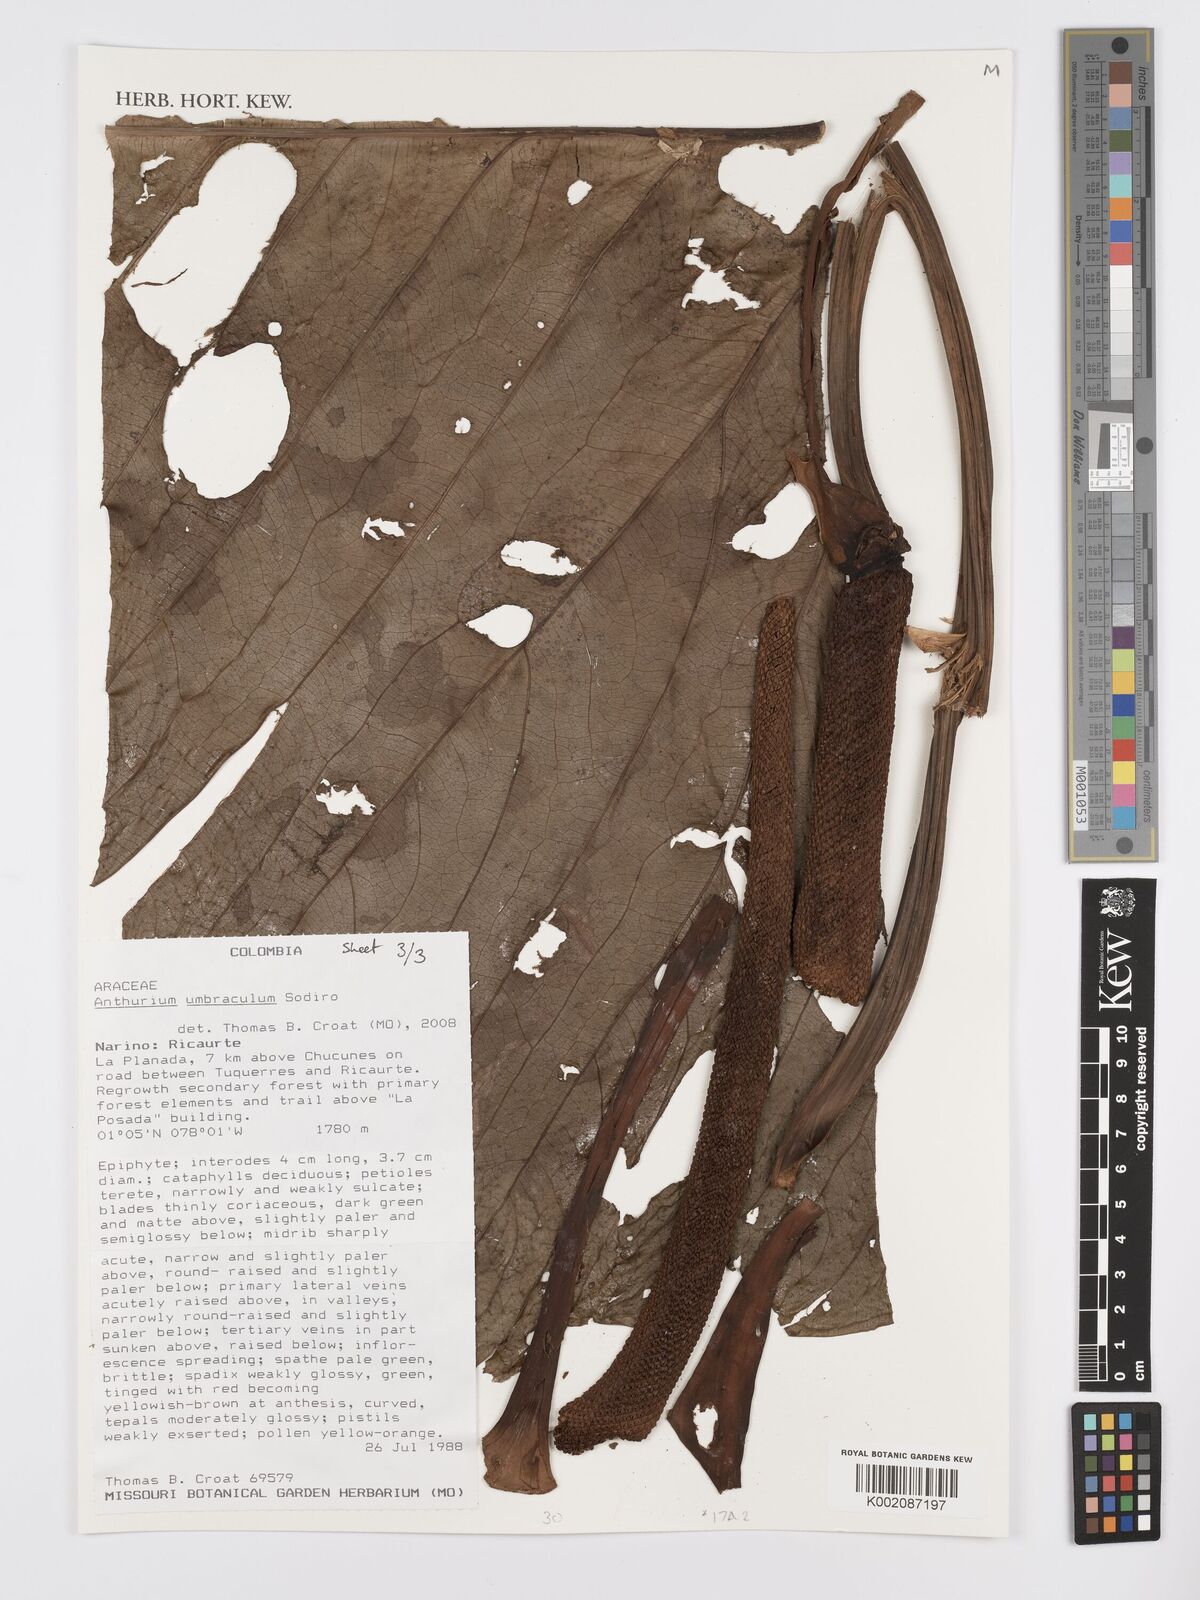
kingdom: Plantae
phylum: Tracheophyta
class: Liliopsida
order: Alismatales
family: Araceae
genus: Anthurium
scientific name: Anthurium umbraculum
